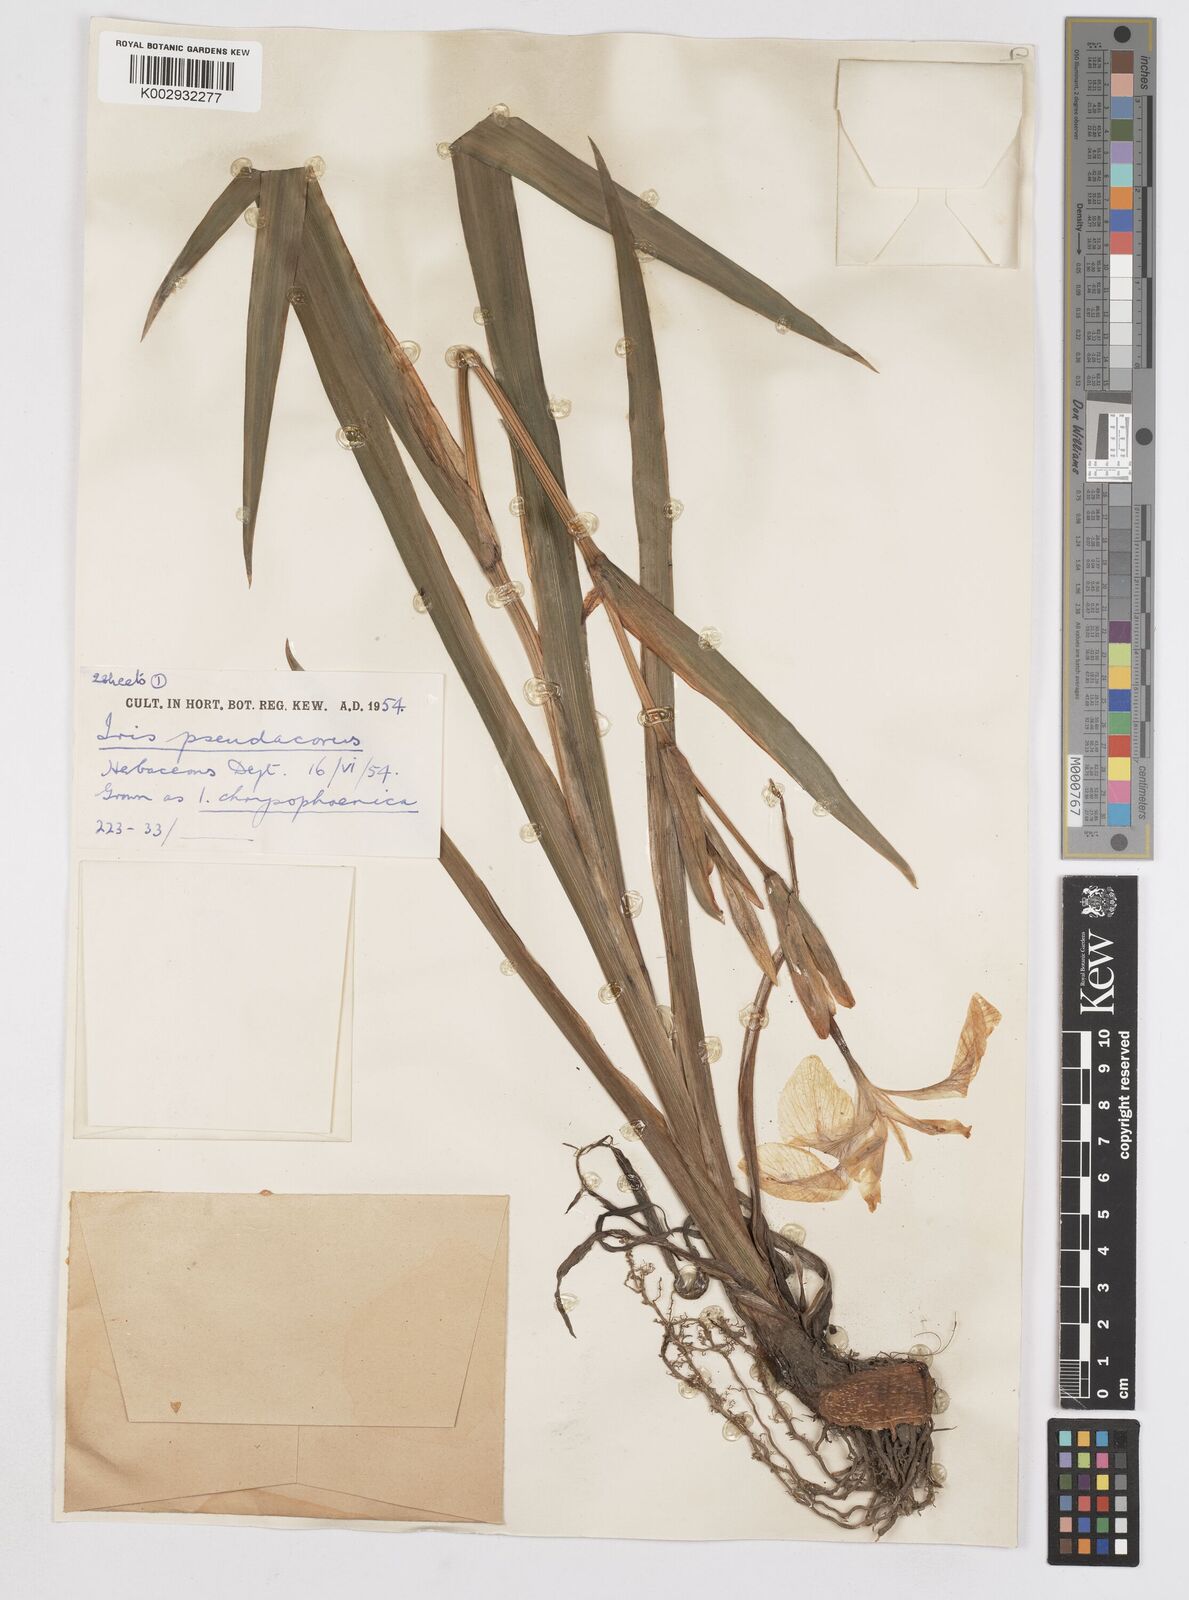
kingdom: Plantae
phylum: Tracheophyta
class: Liliopsida
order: Asparagales
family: Iridaceae
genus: Iris
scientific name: Iris
